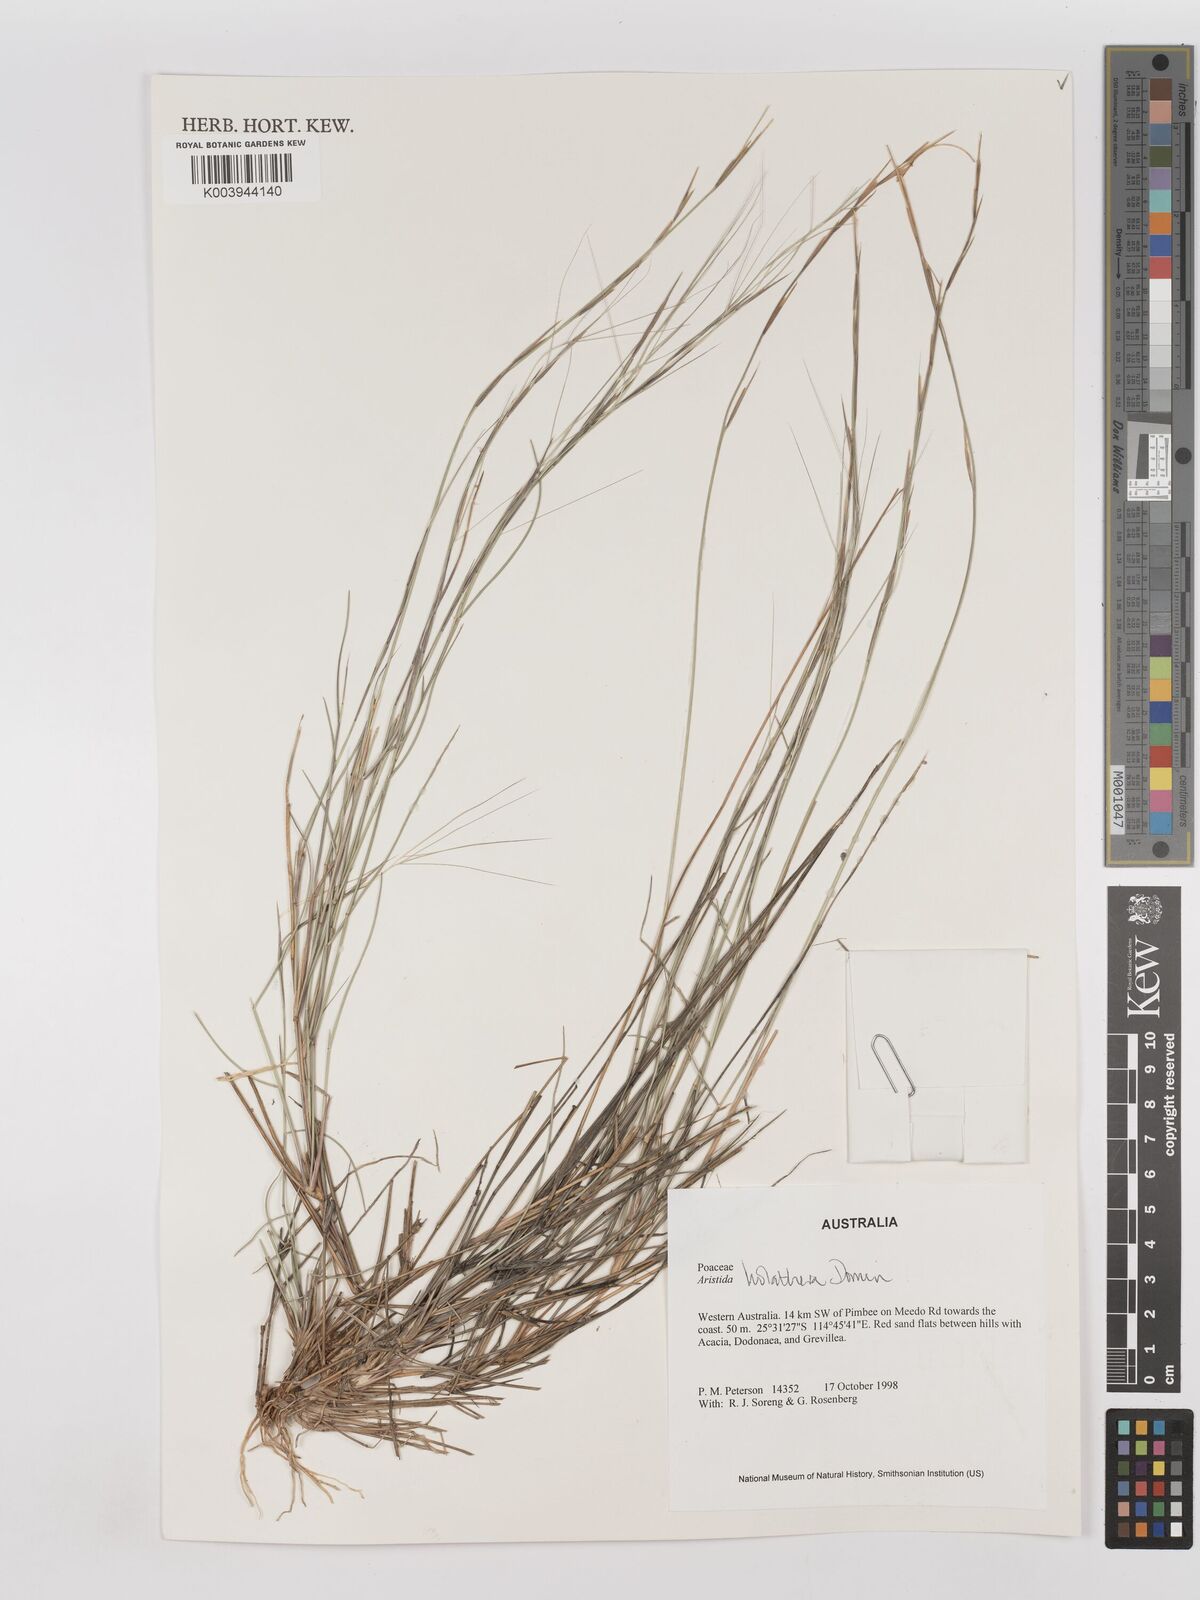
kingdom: Plantae
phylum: Tracheophyta
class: Liliopsida
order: Poales
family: Poaceae
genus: Aristida
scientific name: Aristida holathera
